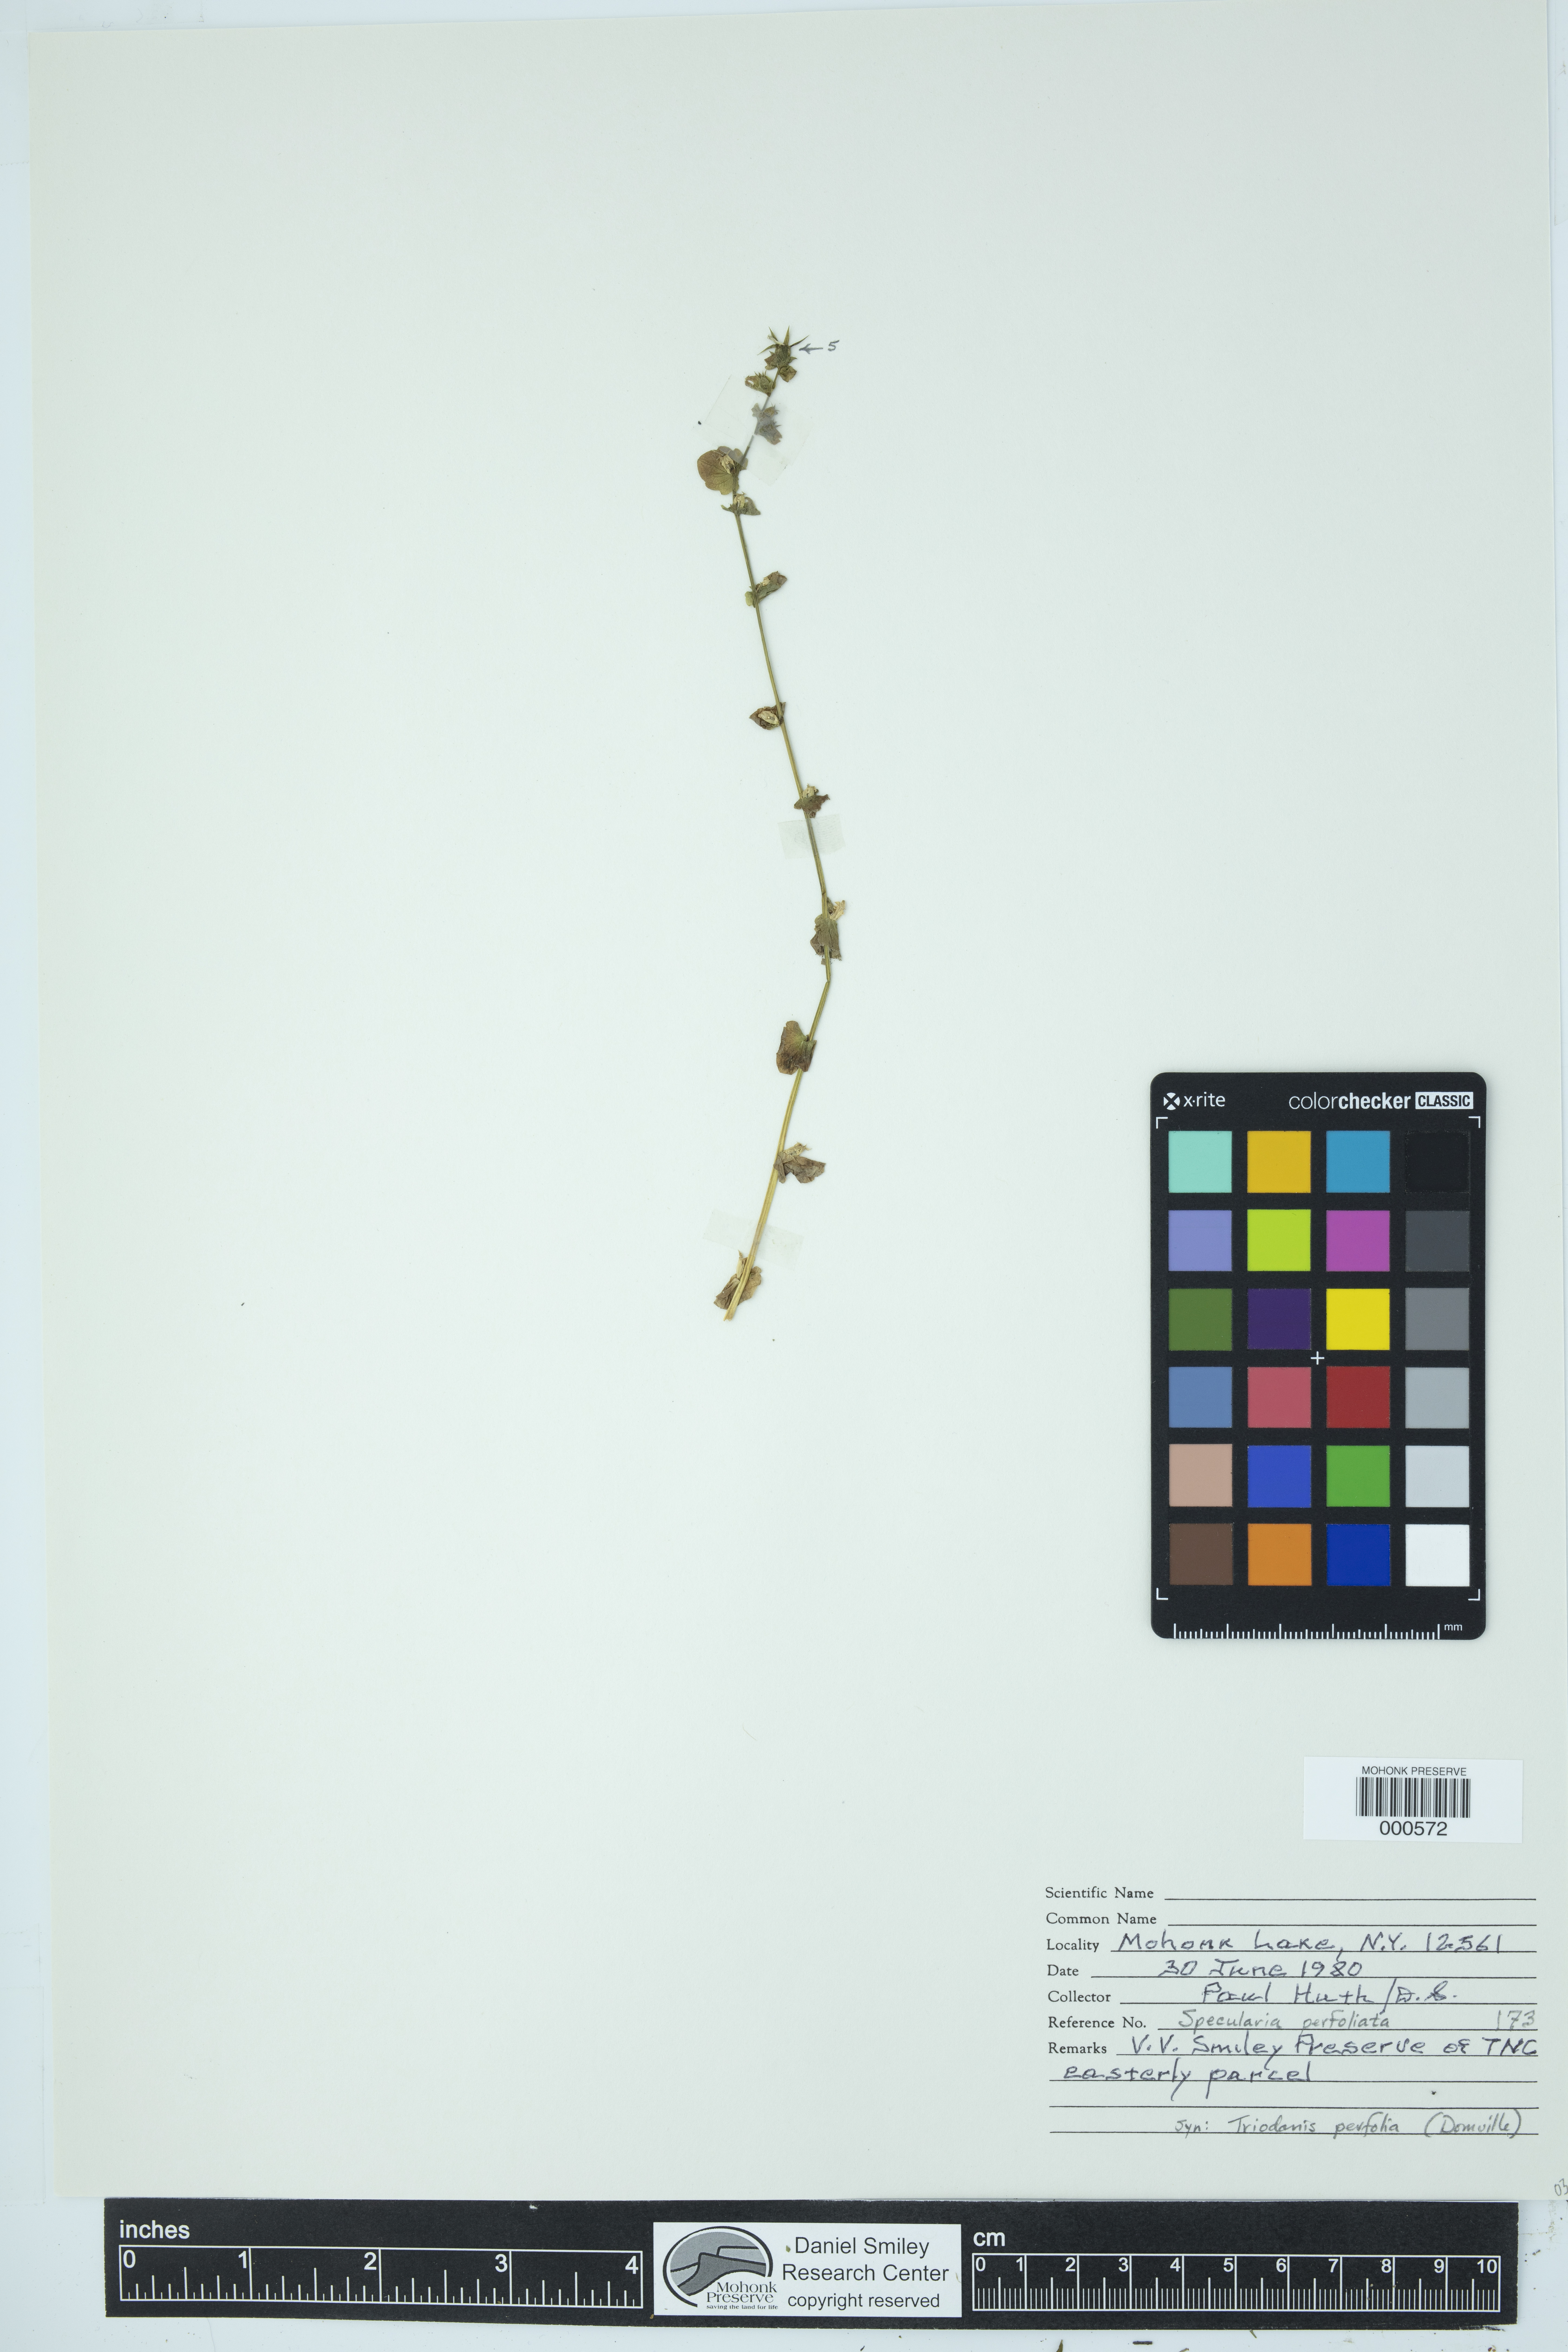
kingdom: Plantae
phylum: Tracheophyta
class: Magnoliopsida
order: Asterales
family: Campanulaceae
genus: Triodanis
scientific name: Triodanis perfoliata
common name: Clasping venus' looking-glass
